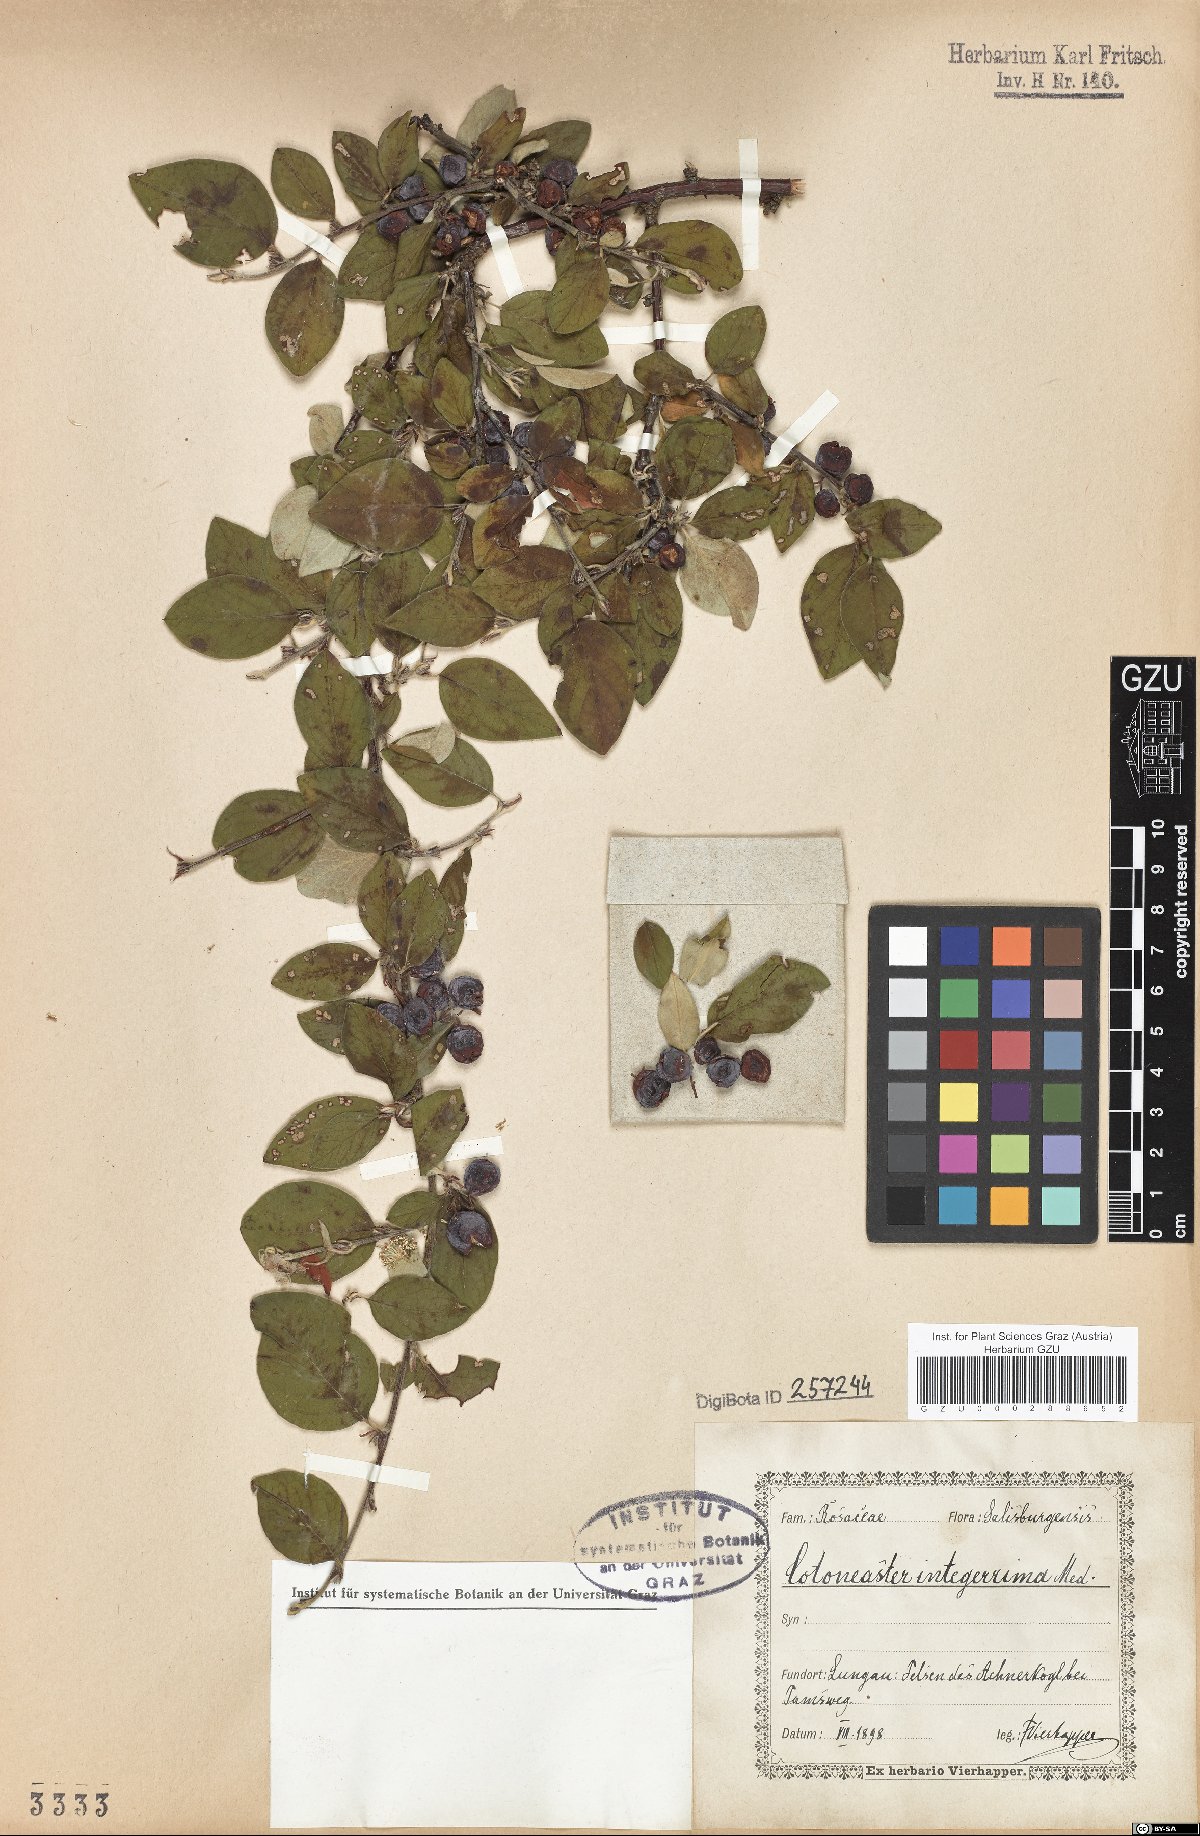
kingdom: Plantae
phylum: Tracheophyta
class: Magnoliopsida
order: Rosales
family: Rosaceae
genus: Cotoneaster
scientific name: Cotoneaster integerrimus
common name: Wild cotoneaster
